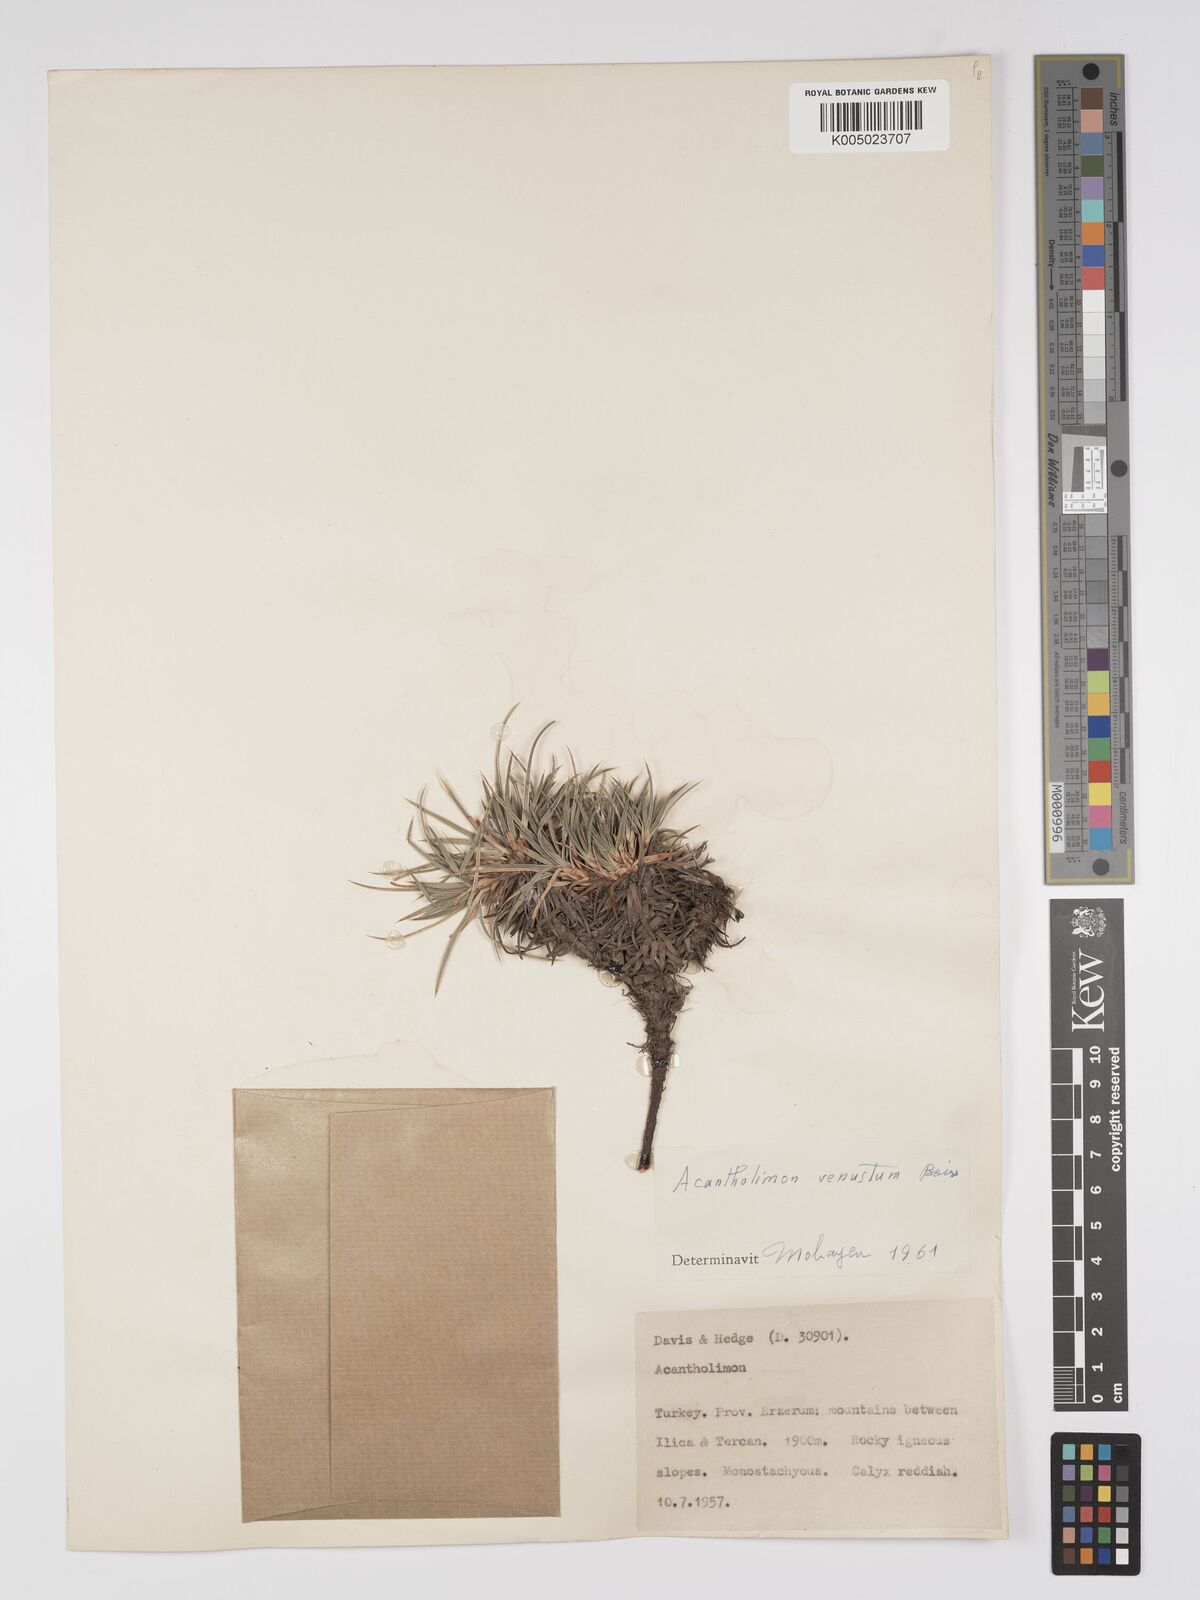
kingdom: Plantae
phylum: Tracheophyta
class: Magnoliopsida
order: Caryophyllales
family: Plumbaginaceae
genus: Acantholimon
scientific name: Acantholimon venustum
